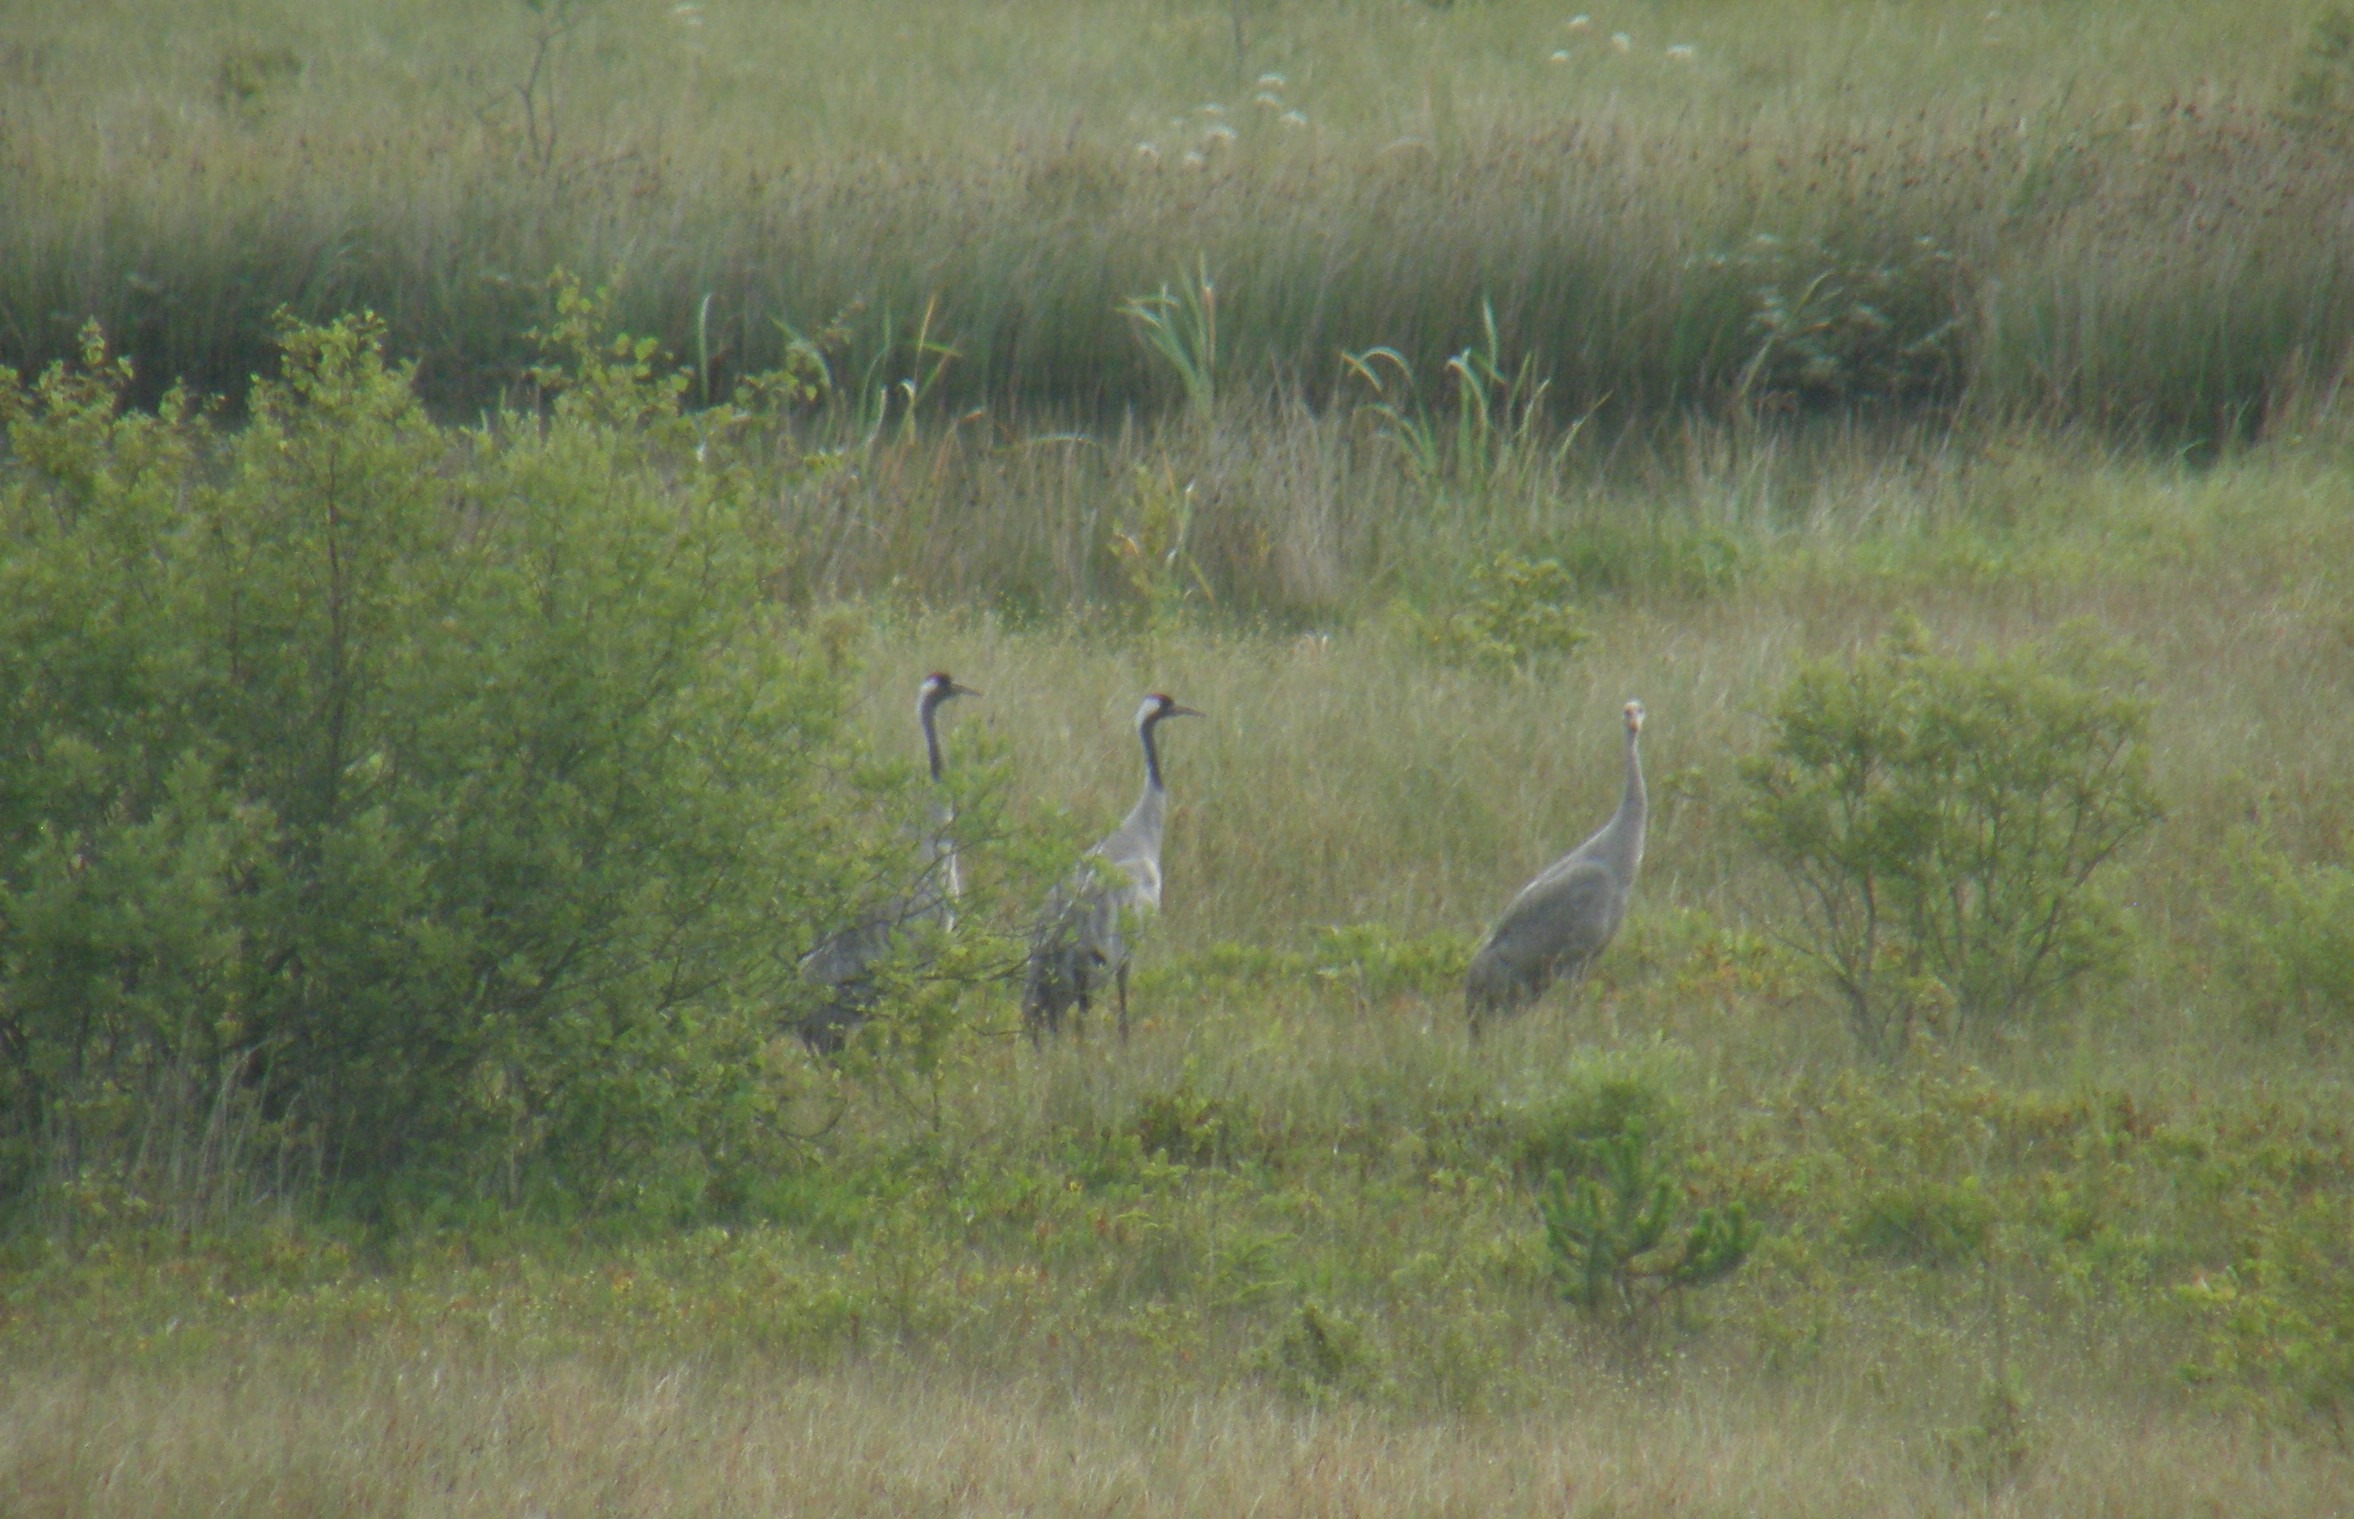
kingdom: Animalia
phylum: Chordata
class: Aves
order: Gruiformes
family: Gruidae
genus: Grus
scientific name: Grus grus
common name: Trane
